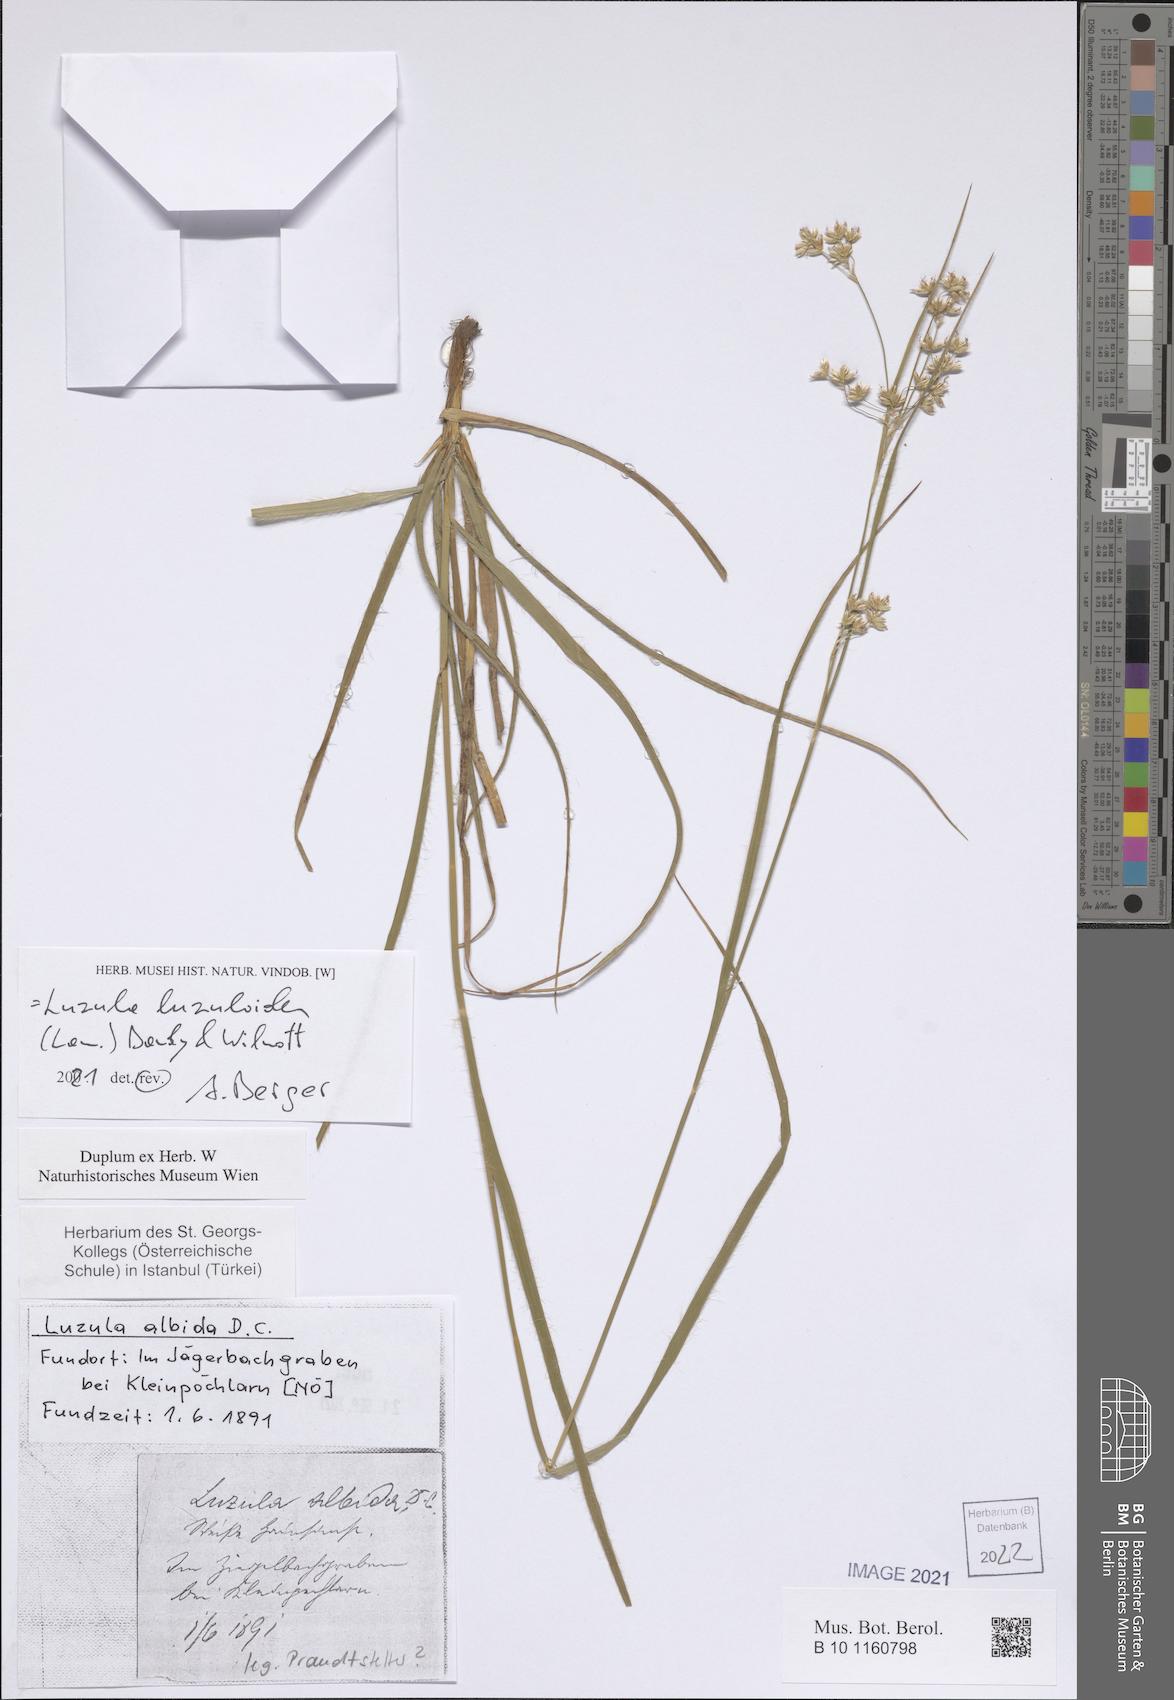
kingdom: Plantae
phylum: Tracheophyta
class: Liliopsida
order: Poales
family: Juncaceae
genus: Luzula
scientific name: Luzula luzuloides
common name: White wood-rush
